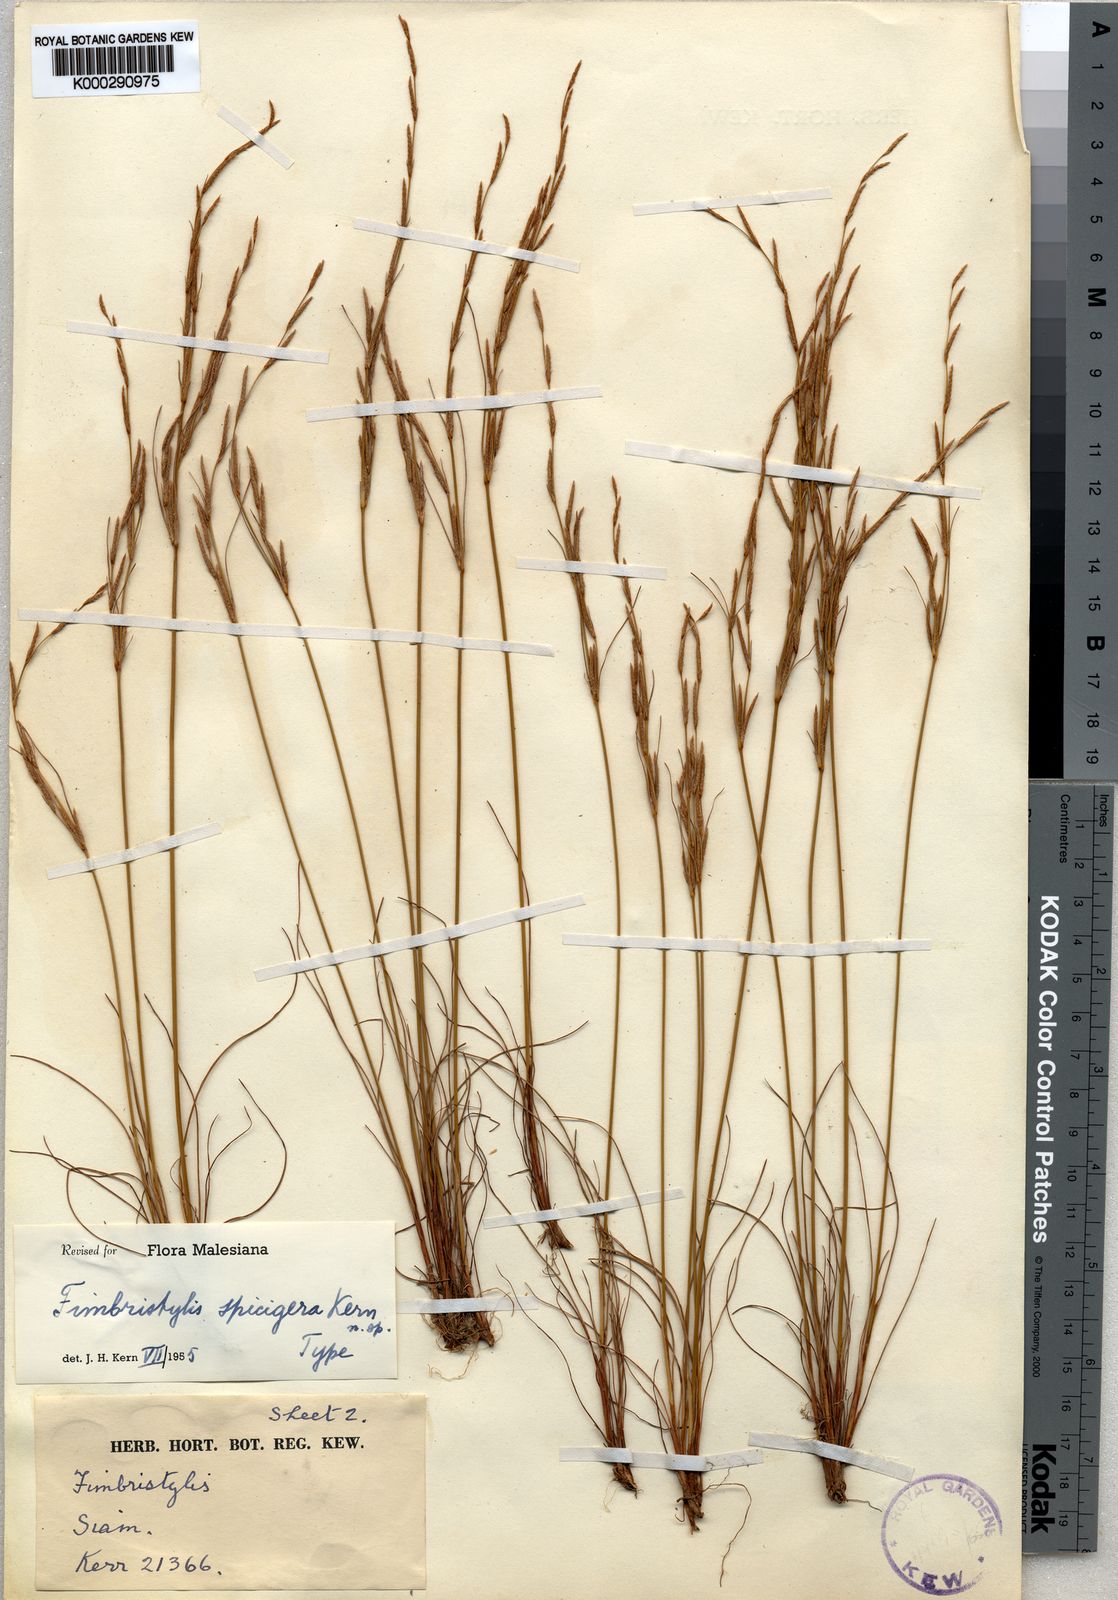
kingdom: Plantae
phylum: Tracheophyta
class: Liliopsida
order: Poales
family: Cyperaceae
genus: Fimbristylis
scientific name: Fimbristylis spicigera
